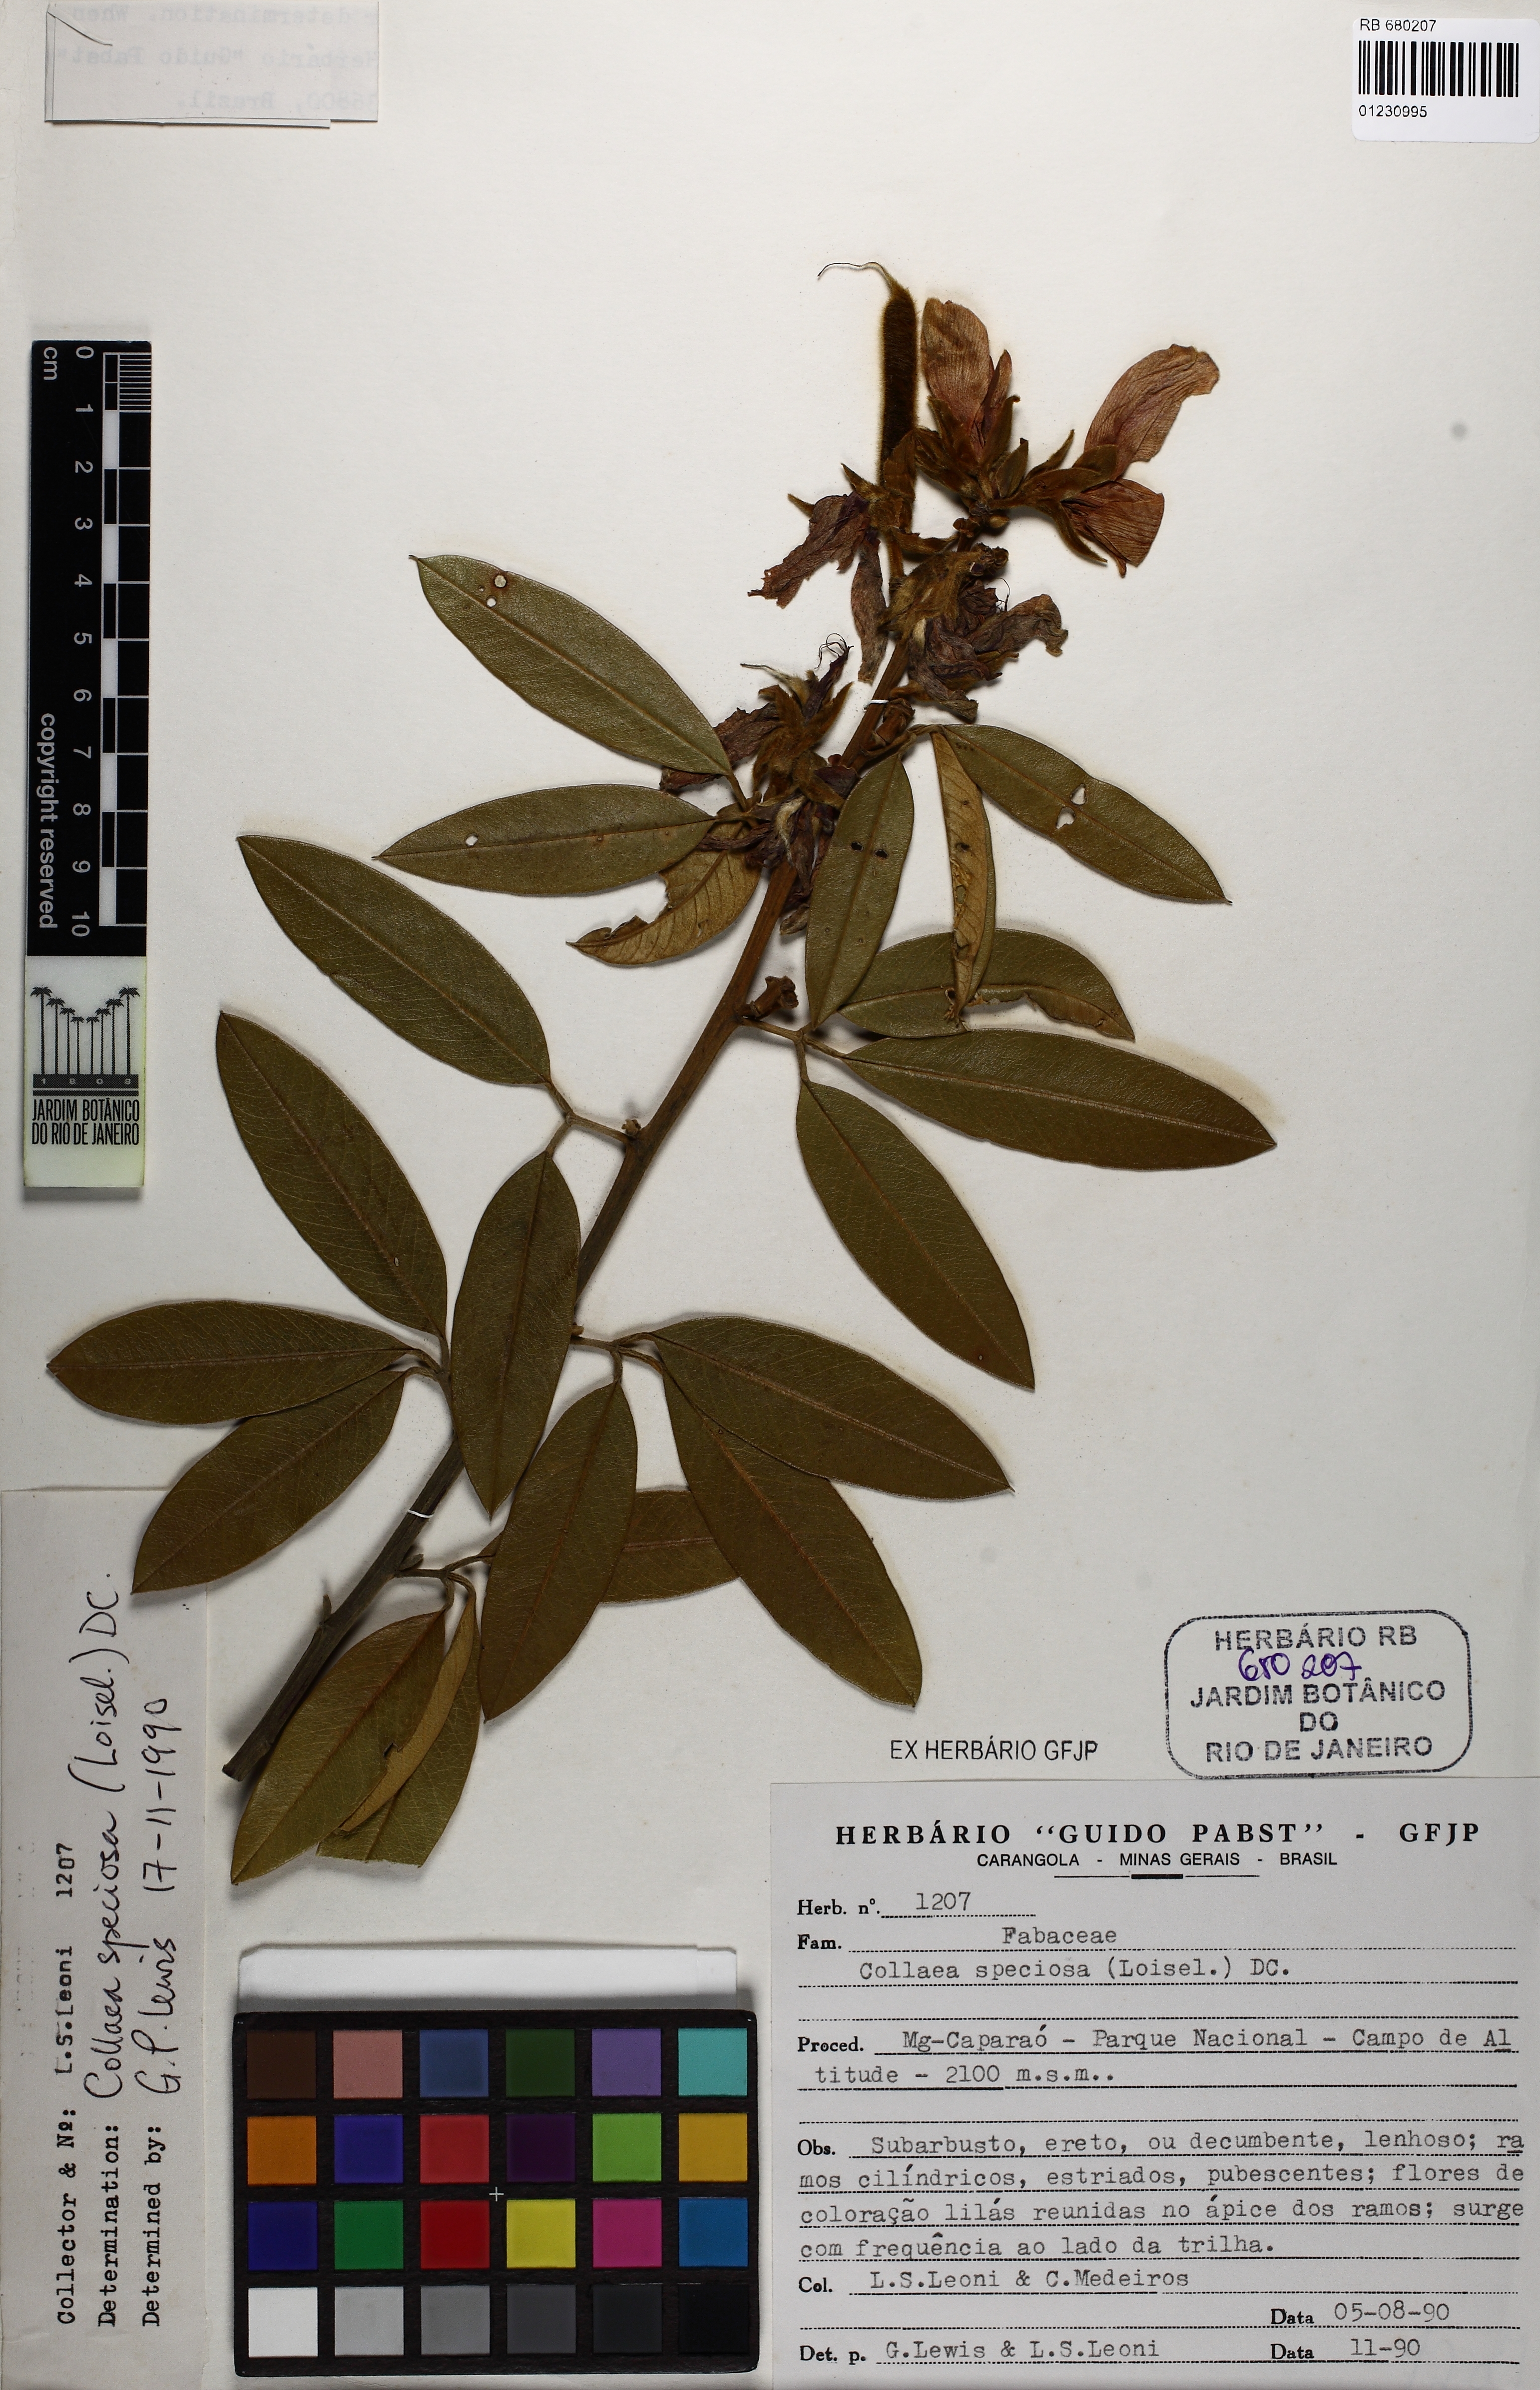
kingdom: Plantae
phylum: Tracheophyta
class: Magnoliopsida
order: Fabales
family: Fabaceae
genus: Collaea
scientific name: Collaea speciosa
